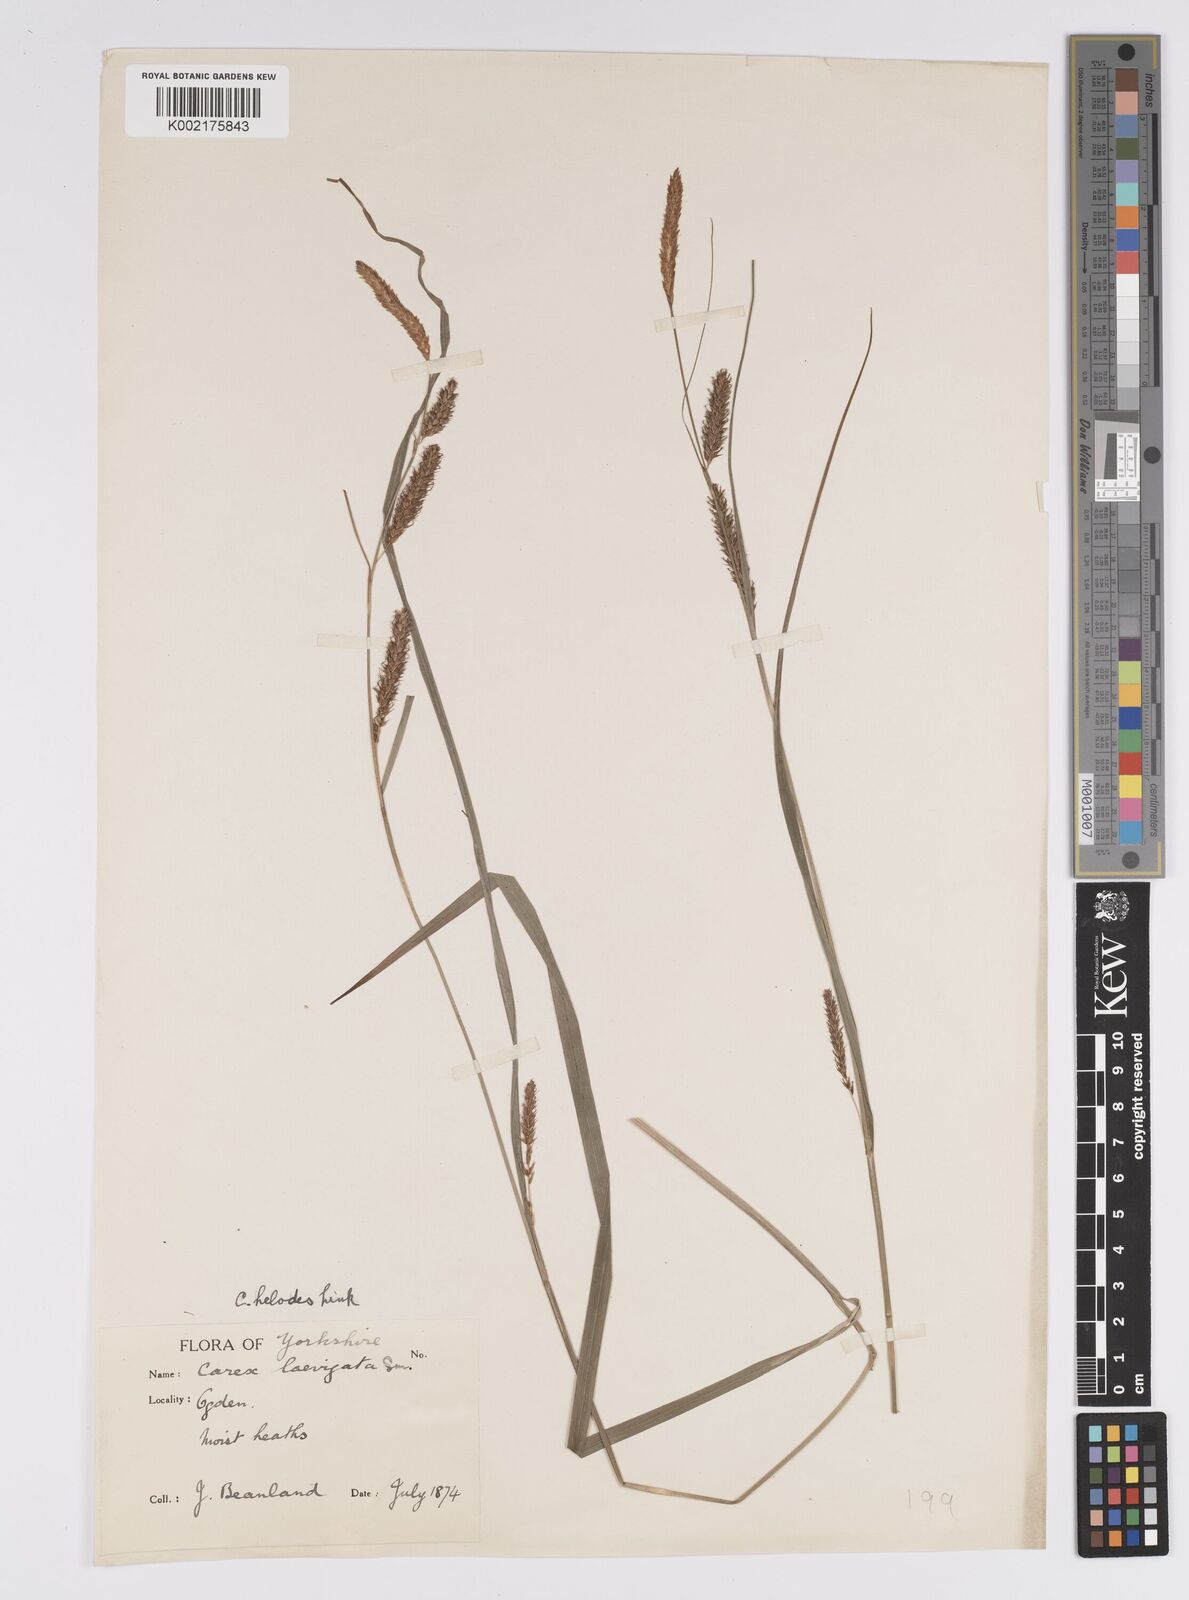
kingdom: Plantae
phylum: Tracheophyta
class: Liliopsida
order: Poales
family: Cyperaceae
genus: Carex
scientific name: Carex laevigata
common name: Smooth-stalked sedge
